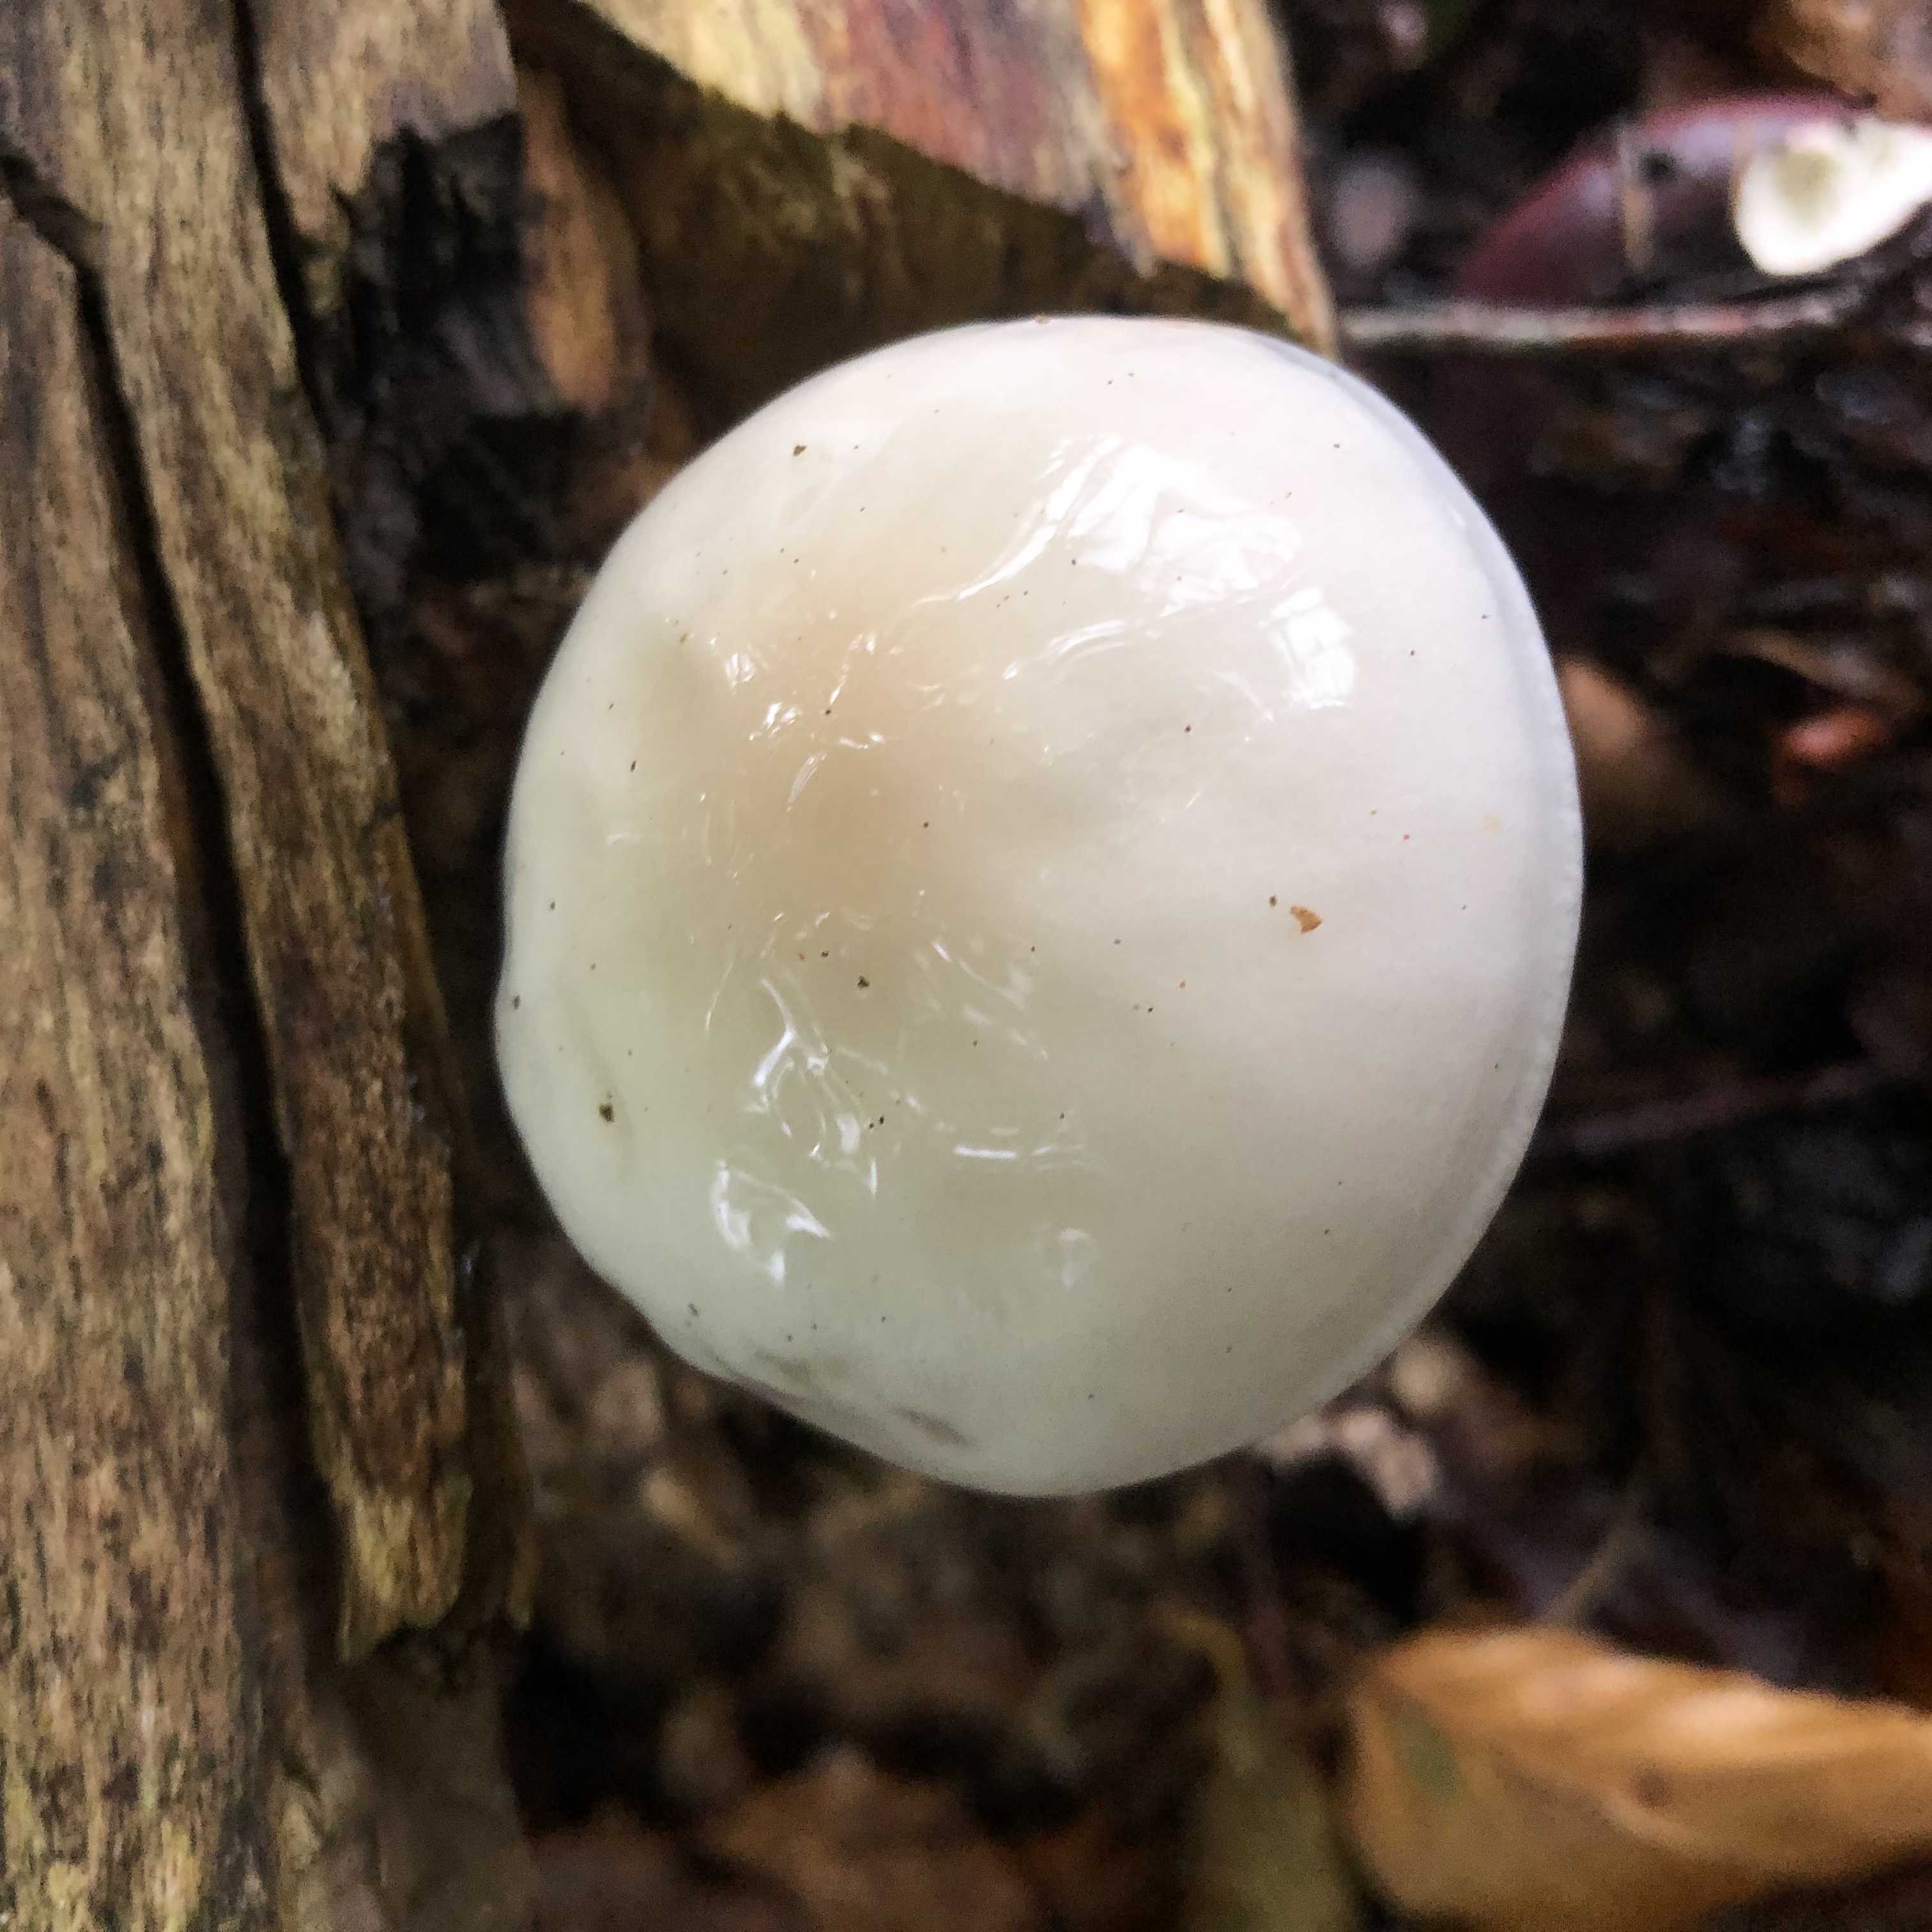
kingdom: Fungi
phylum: Basidiomycota
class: Agaricomycetes
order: Agaricales
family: Physalacriaceae
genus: Mucidula
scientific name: Mucidula mucida
